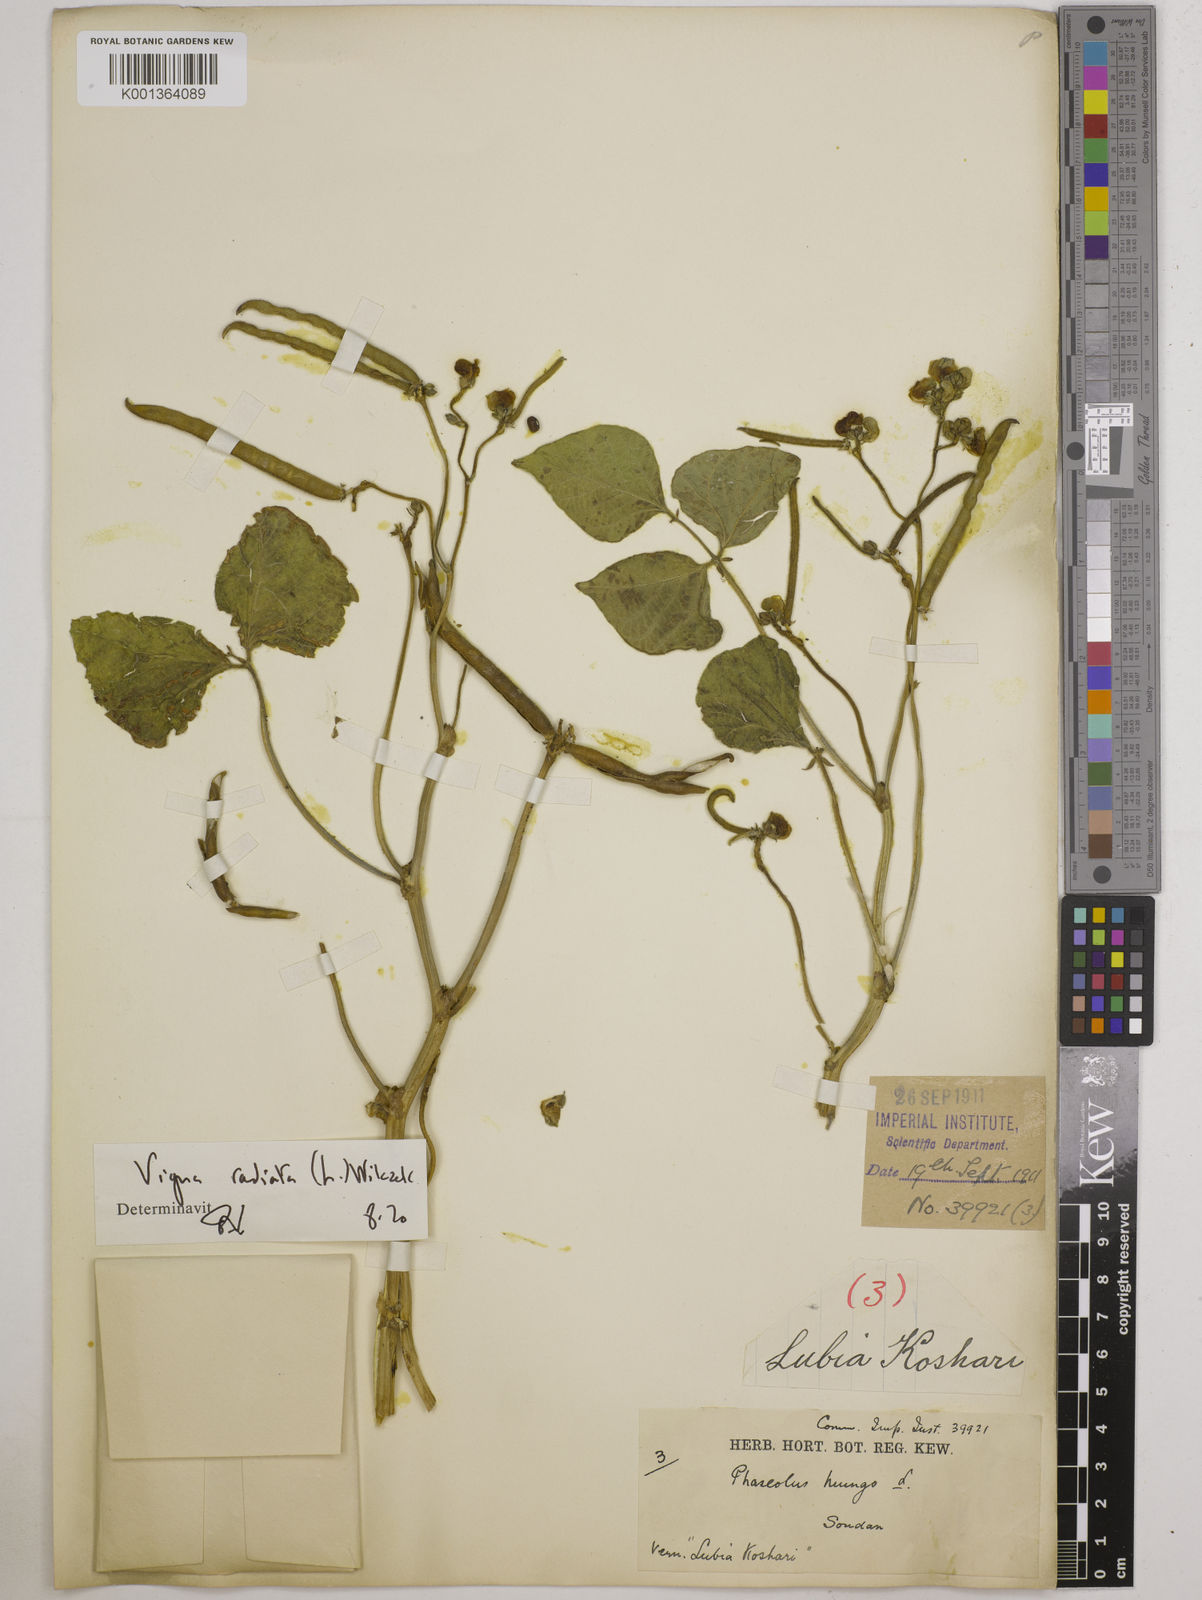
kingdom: Plantae
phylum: Tracheophyta
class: Magnoliopsida
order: Fabales
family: Fabaceae
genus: Vigna
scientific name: Vigna radiata
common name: Mung-bean
